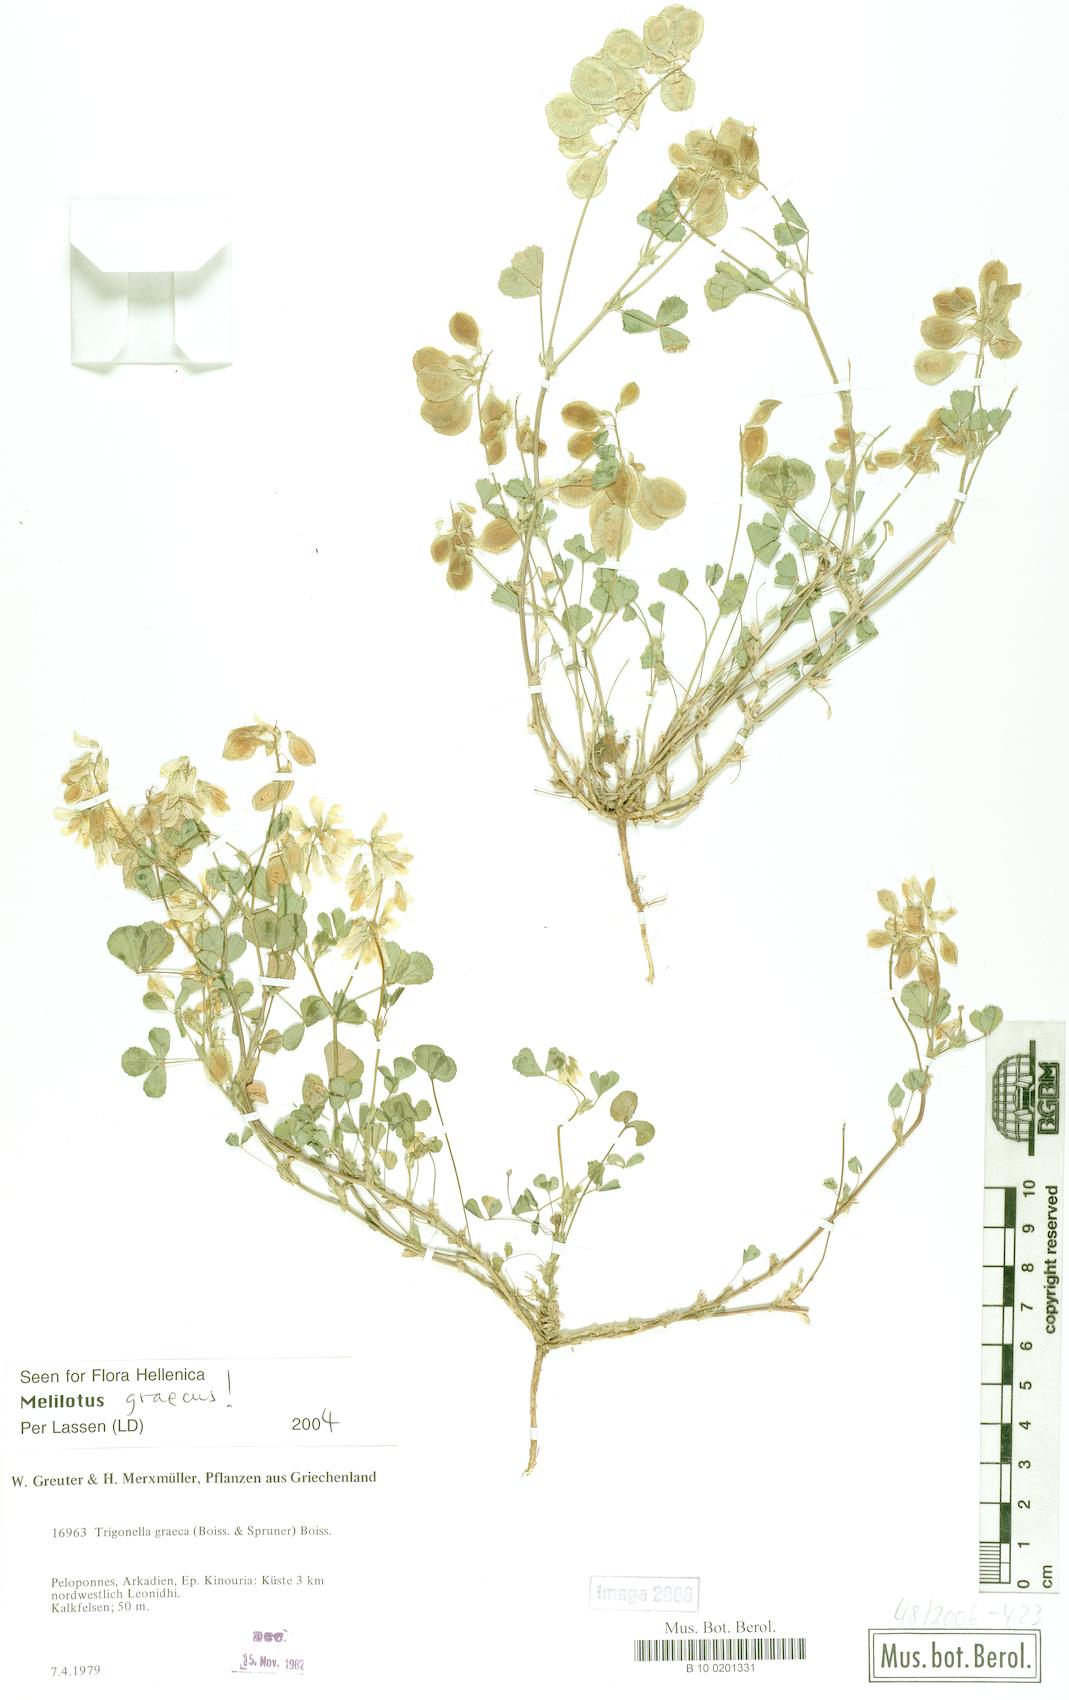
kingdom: Plantae
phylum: Tracheophyta
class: Magnoliopsida
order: Fabales
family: Fabaceae
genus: Trigonella
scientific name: Trigonella graeca
